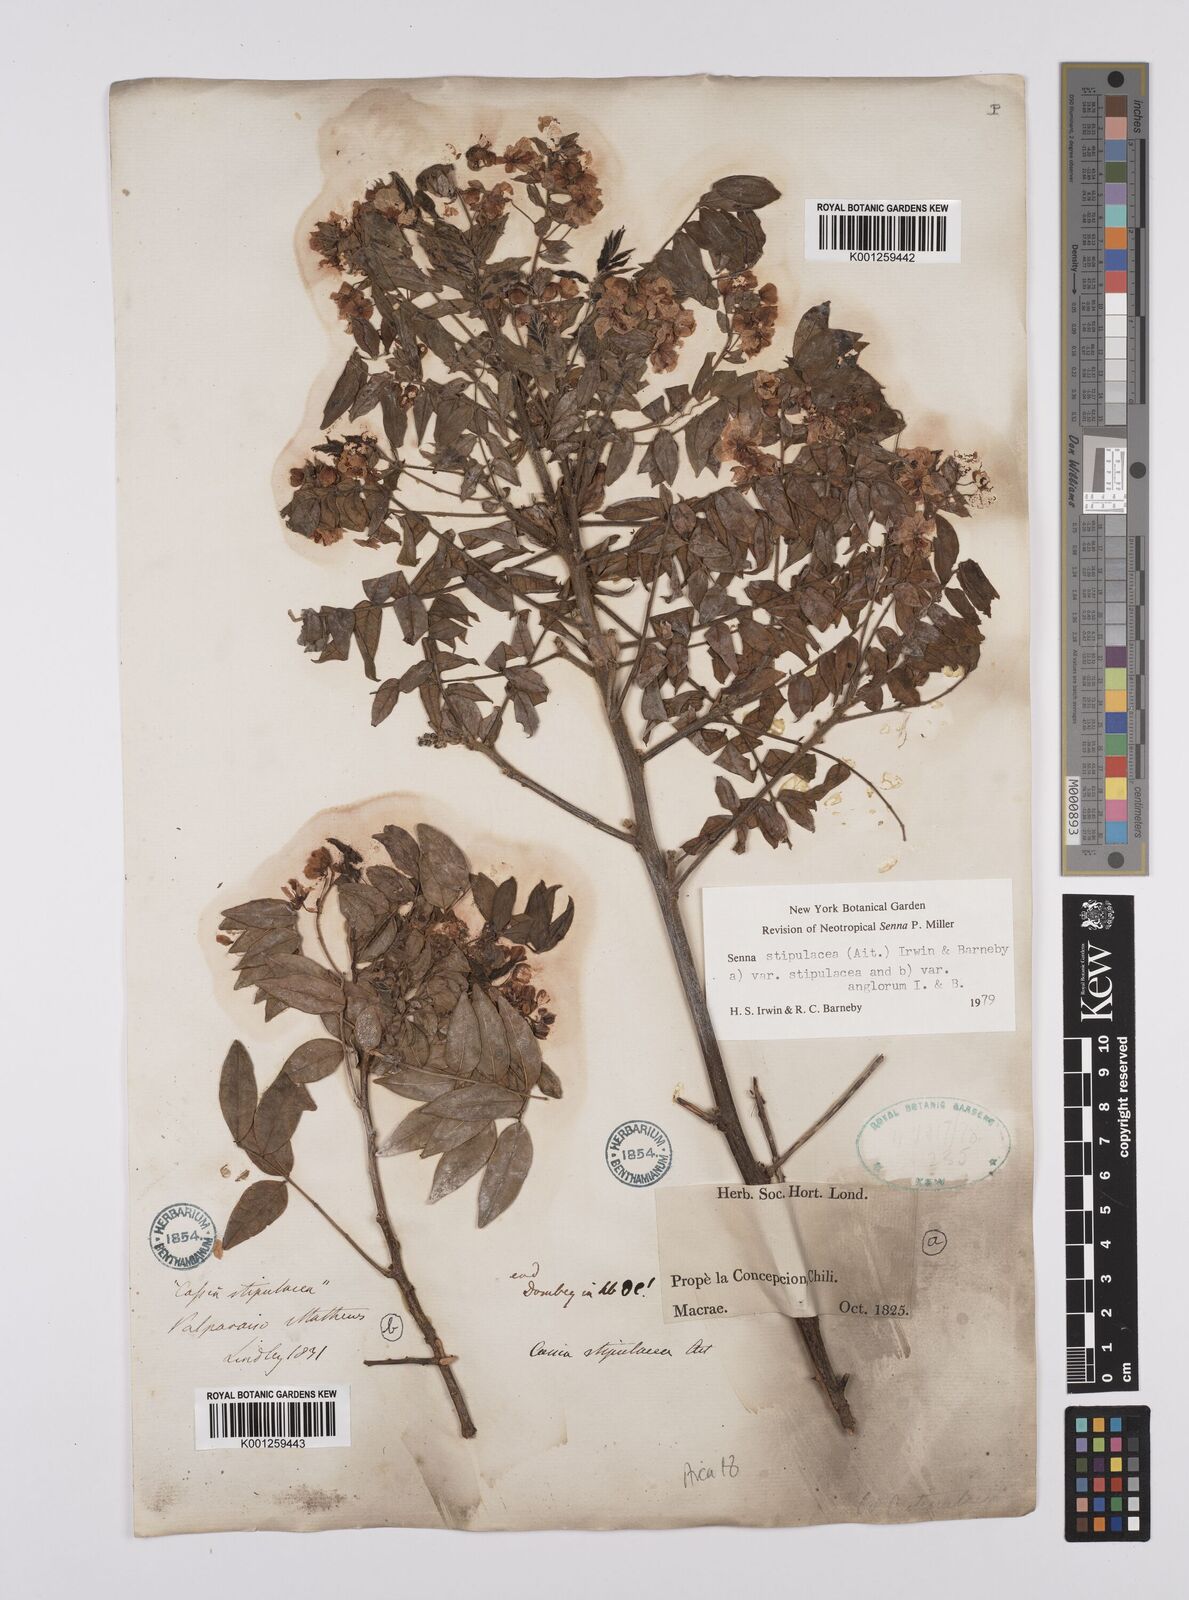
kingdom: Plantae
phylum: Tracheophyta
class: Magnoliopsida
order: Fabales
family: Fabaceae
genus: Senna
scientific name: Senna stipulacea
